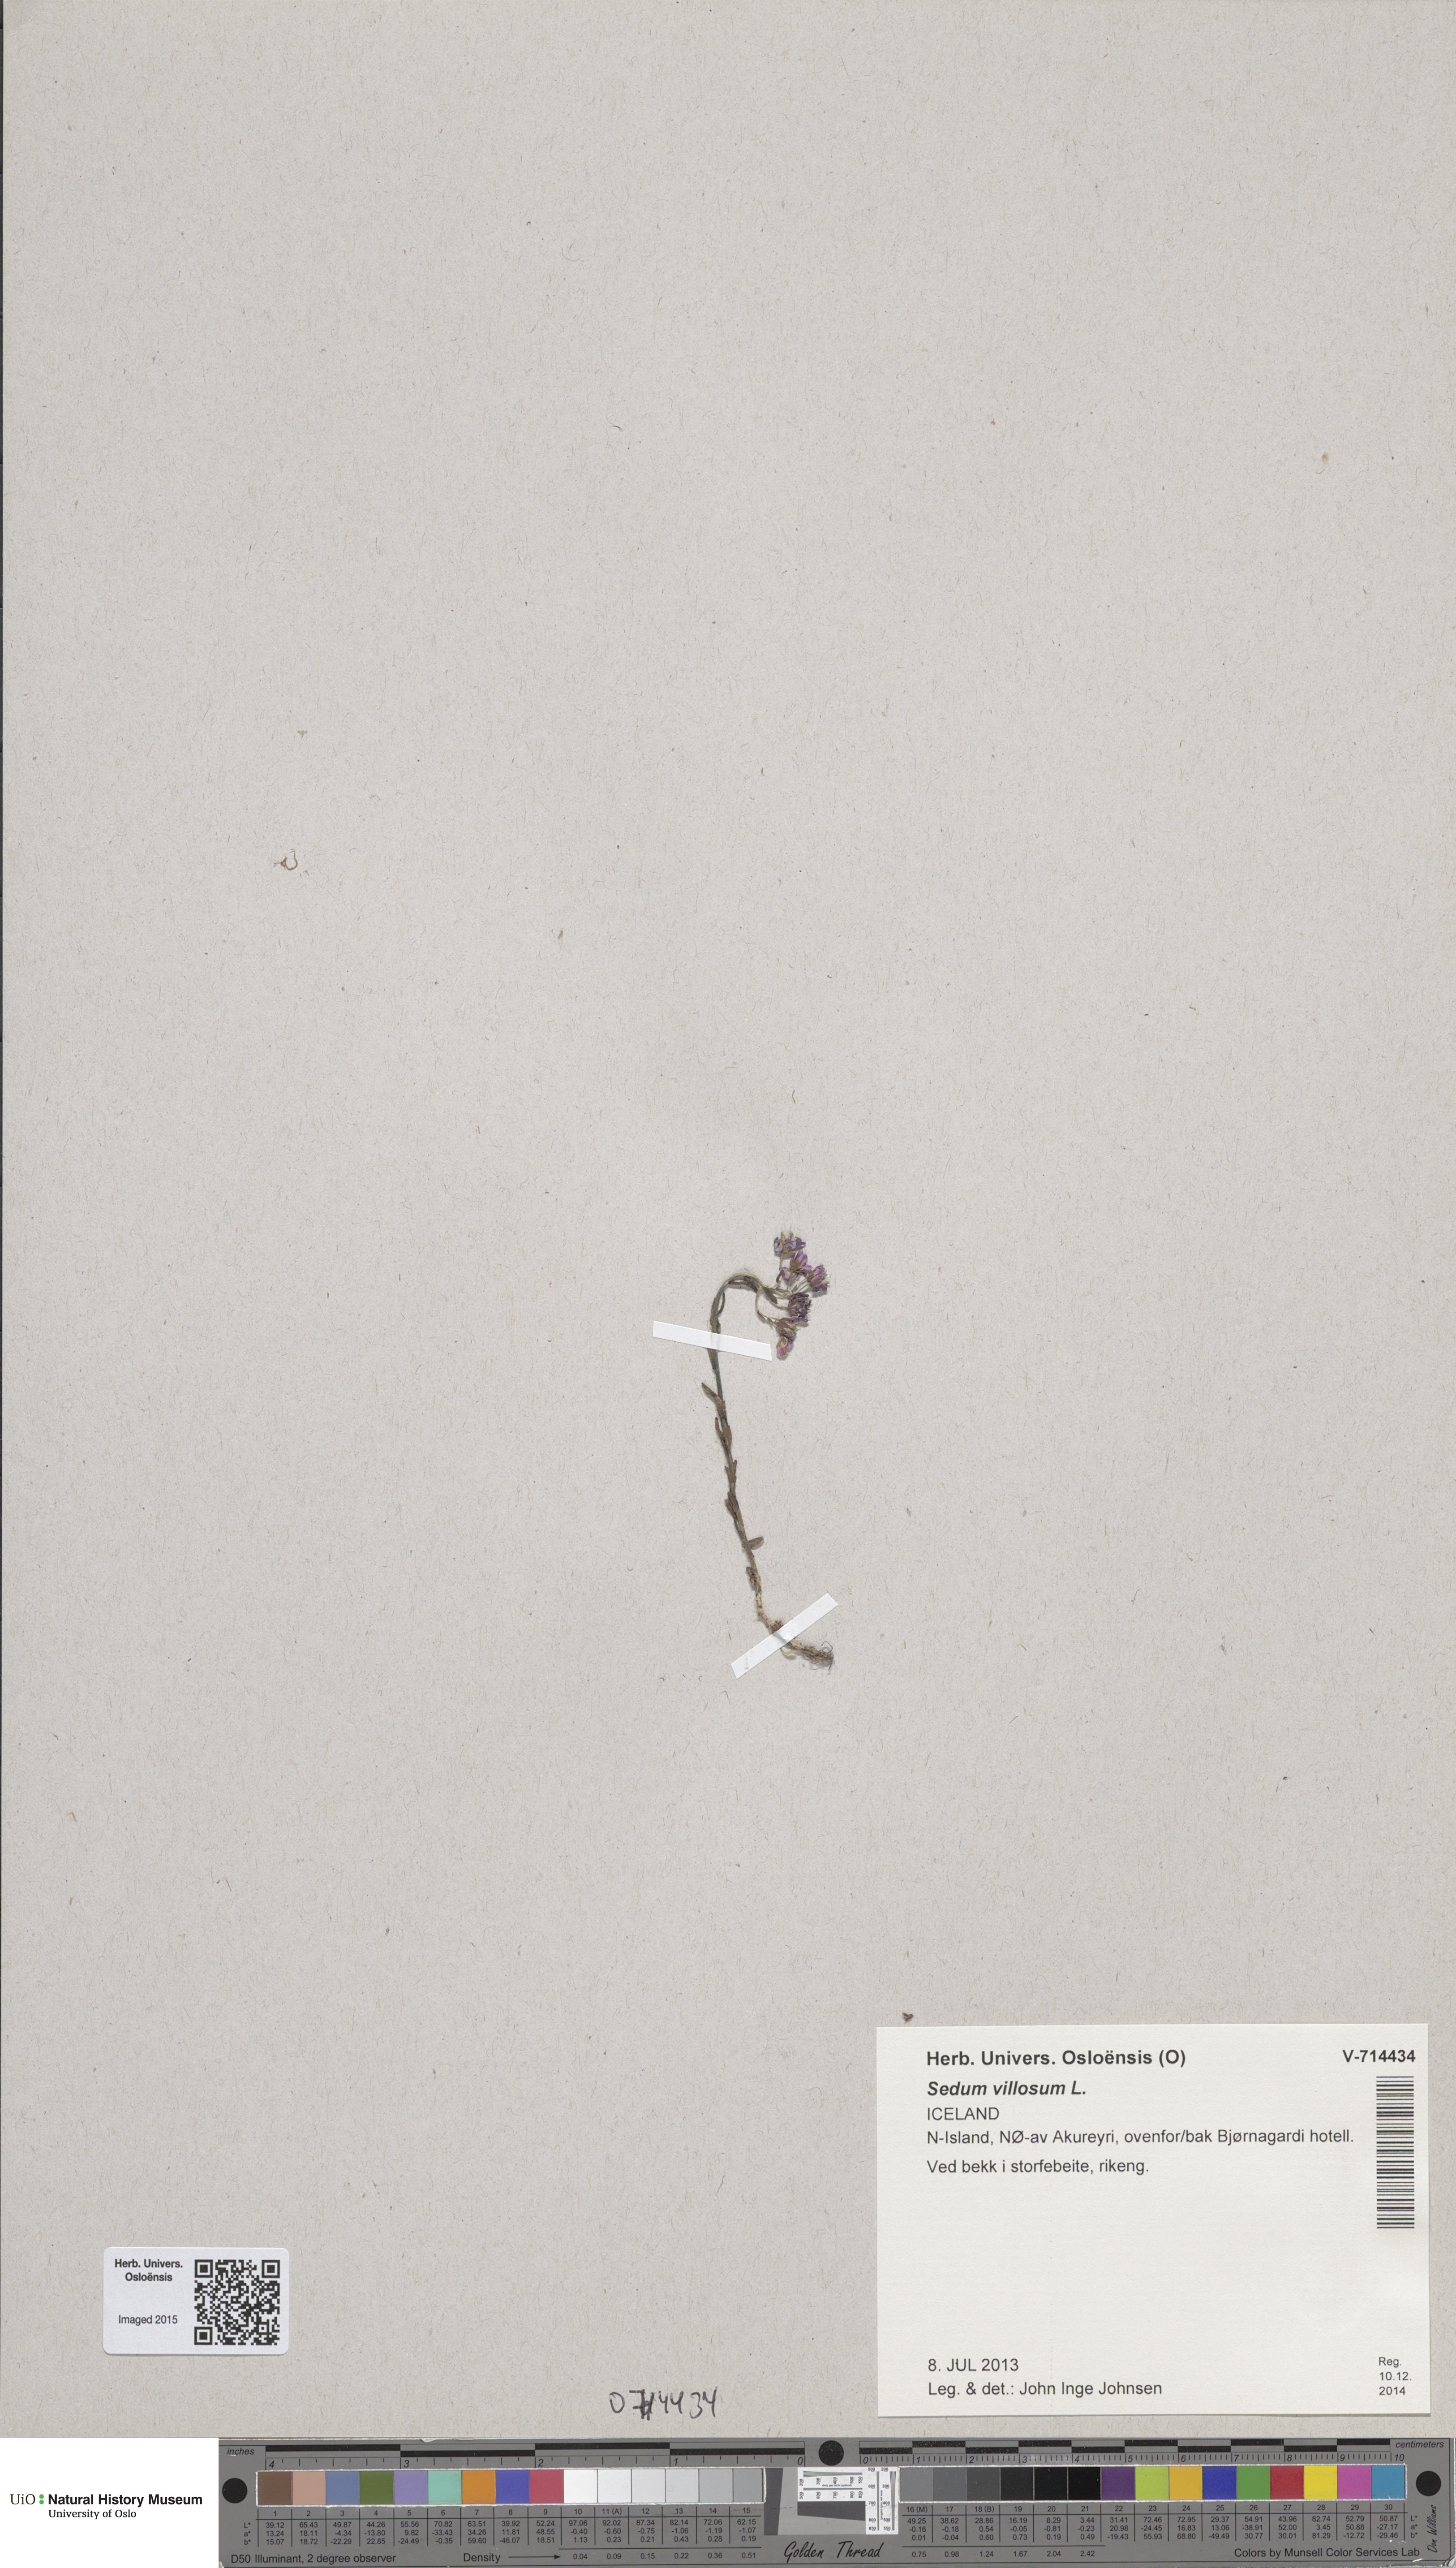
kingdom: Plantae
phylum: Tracheophyta
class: Magnoliopsida
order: Saxifragales
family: Crassulaceae
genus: Sedum
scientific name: Sedum villosum
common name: Hairy stonecrop
